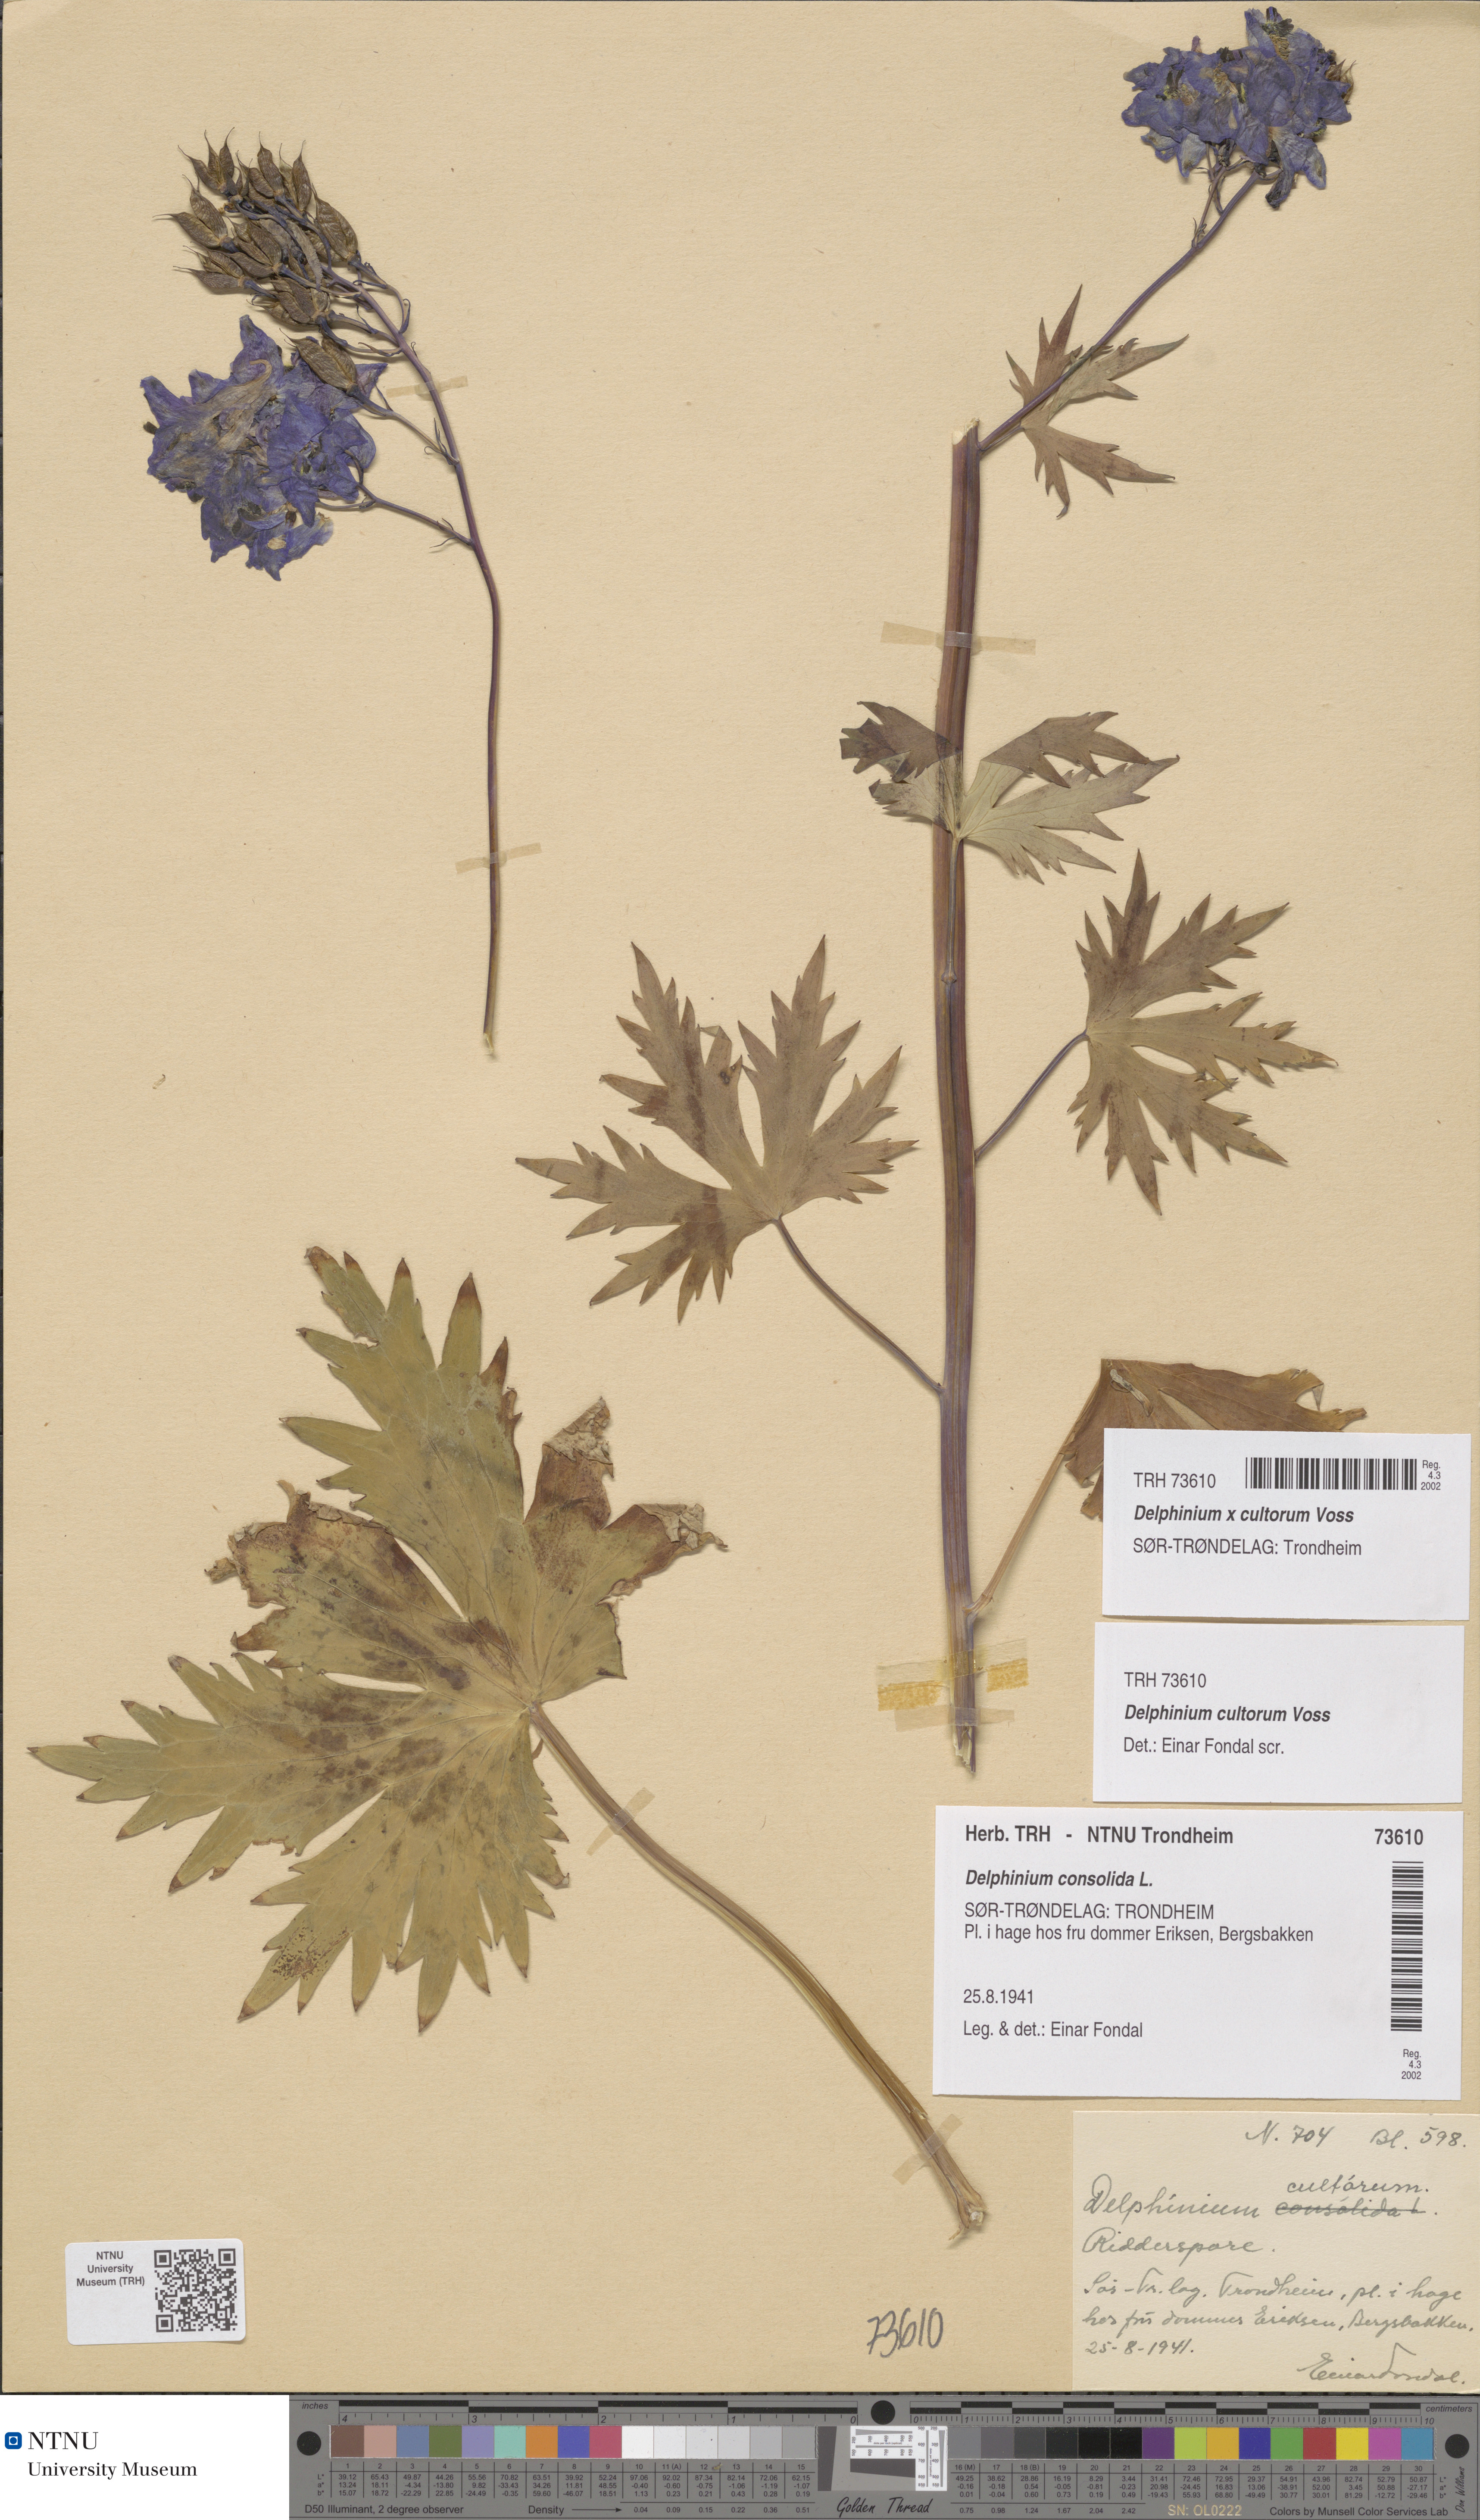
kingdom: Plantae
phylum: Tracheophyta
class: Magnoliopsida
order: Ranunculales
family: Ranunculaceae
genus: Delphinium
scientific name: Delphinium elatum
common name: Candle larkspur
